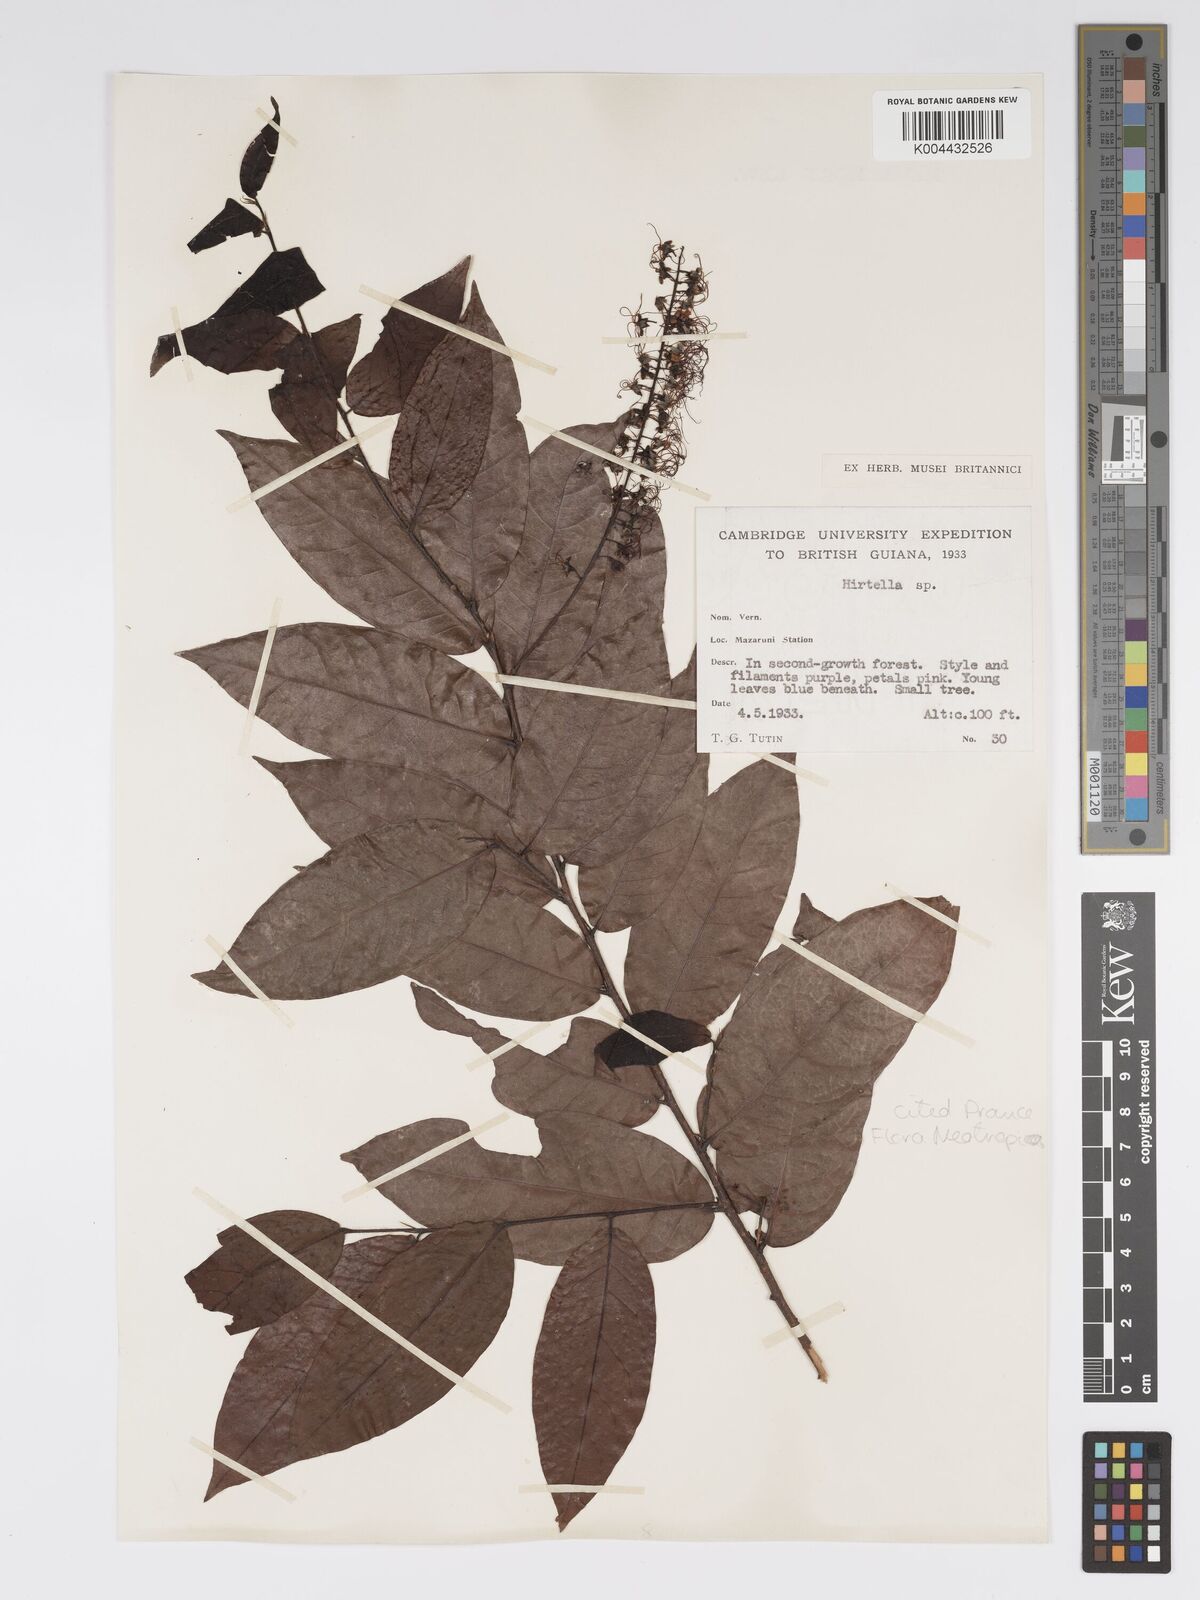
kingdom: Plantae
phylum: Tracheophyta
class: Magnoliopsida
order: Malpighiales
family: Chrysobalanaceae
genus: Hirtella
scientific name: Hirtella
